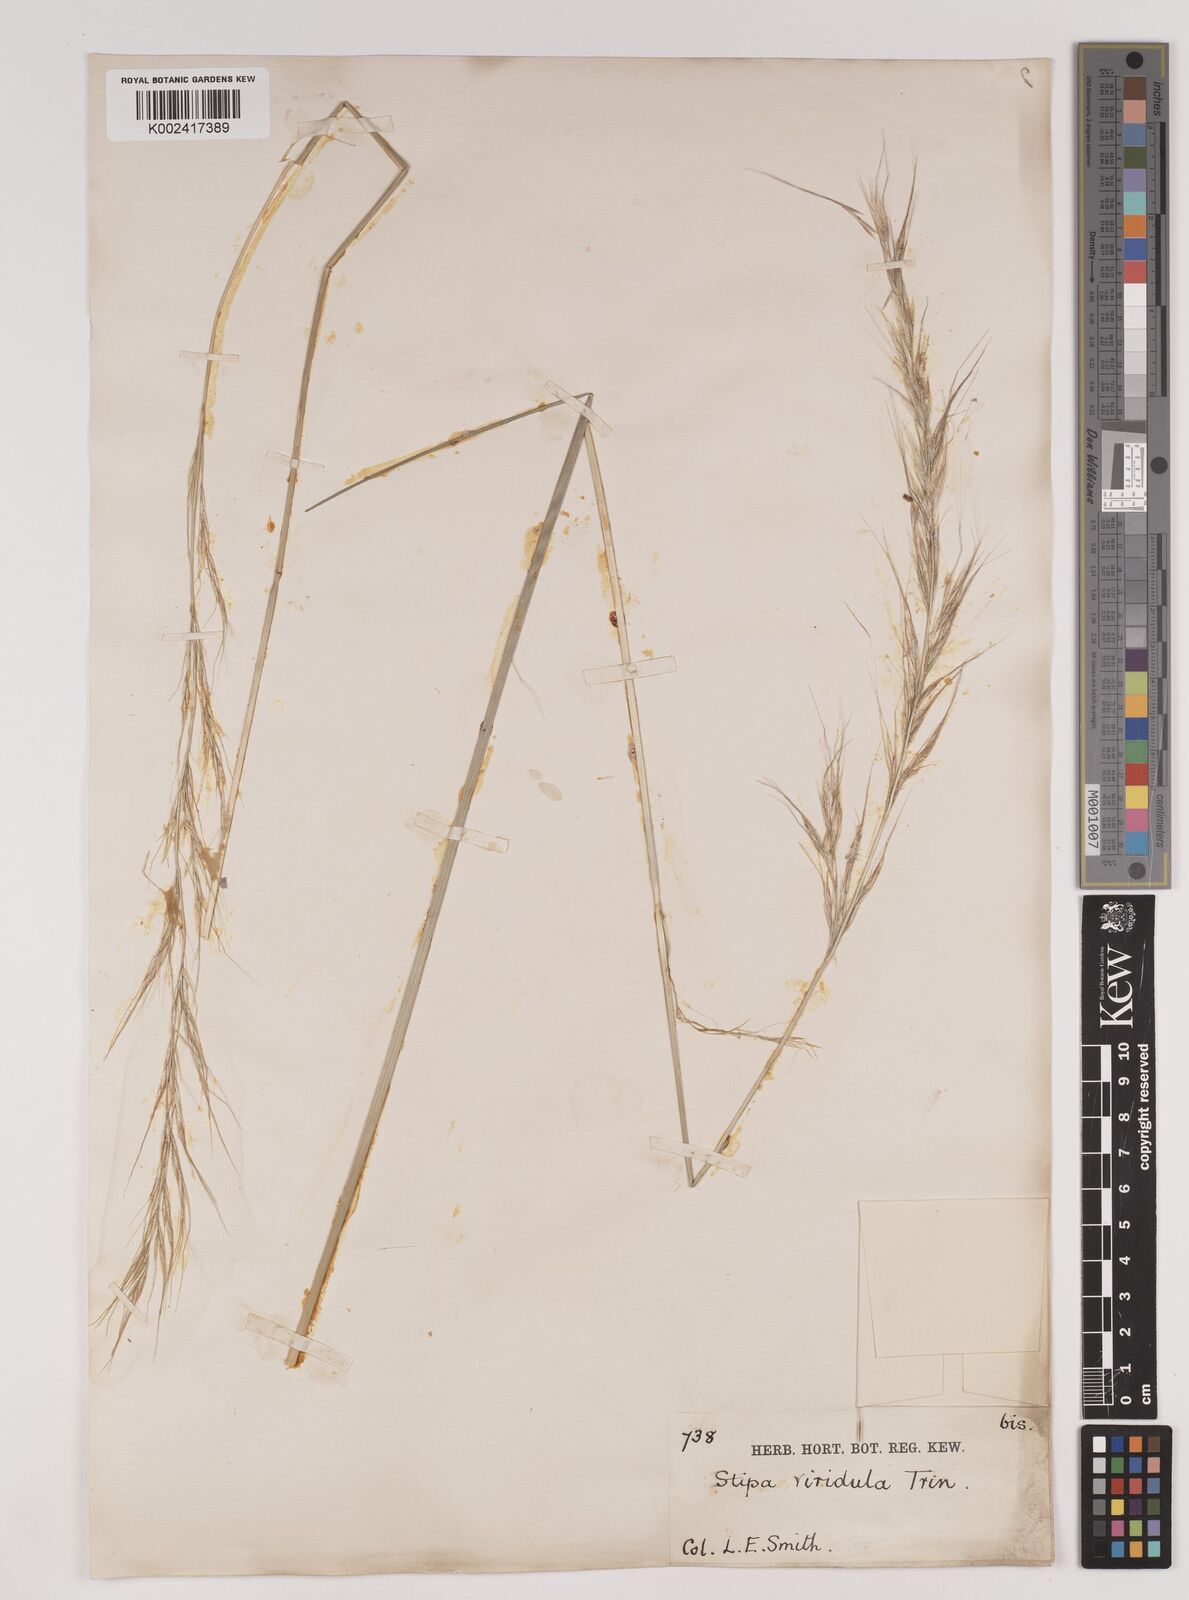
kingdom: Plantae
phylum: Tracheophyta
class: Liliopsida
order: Poales
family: Poaceae
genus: Nassella
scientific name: Nassella viridula
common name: Green needlegrass
